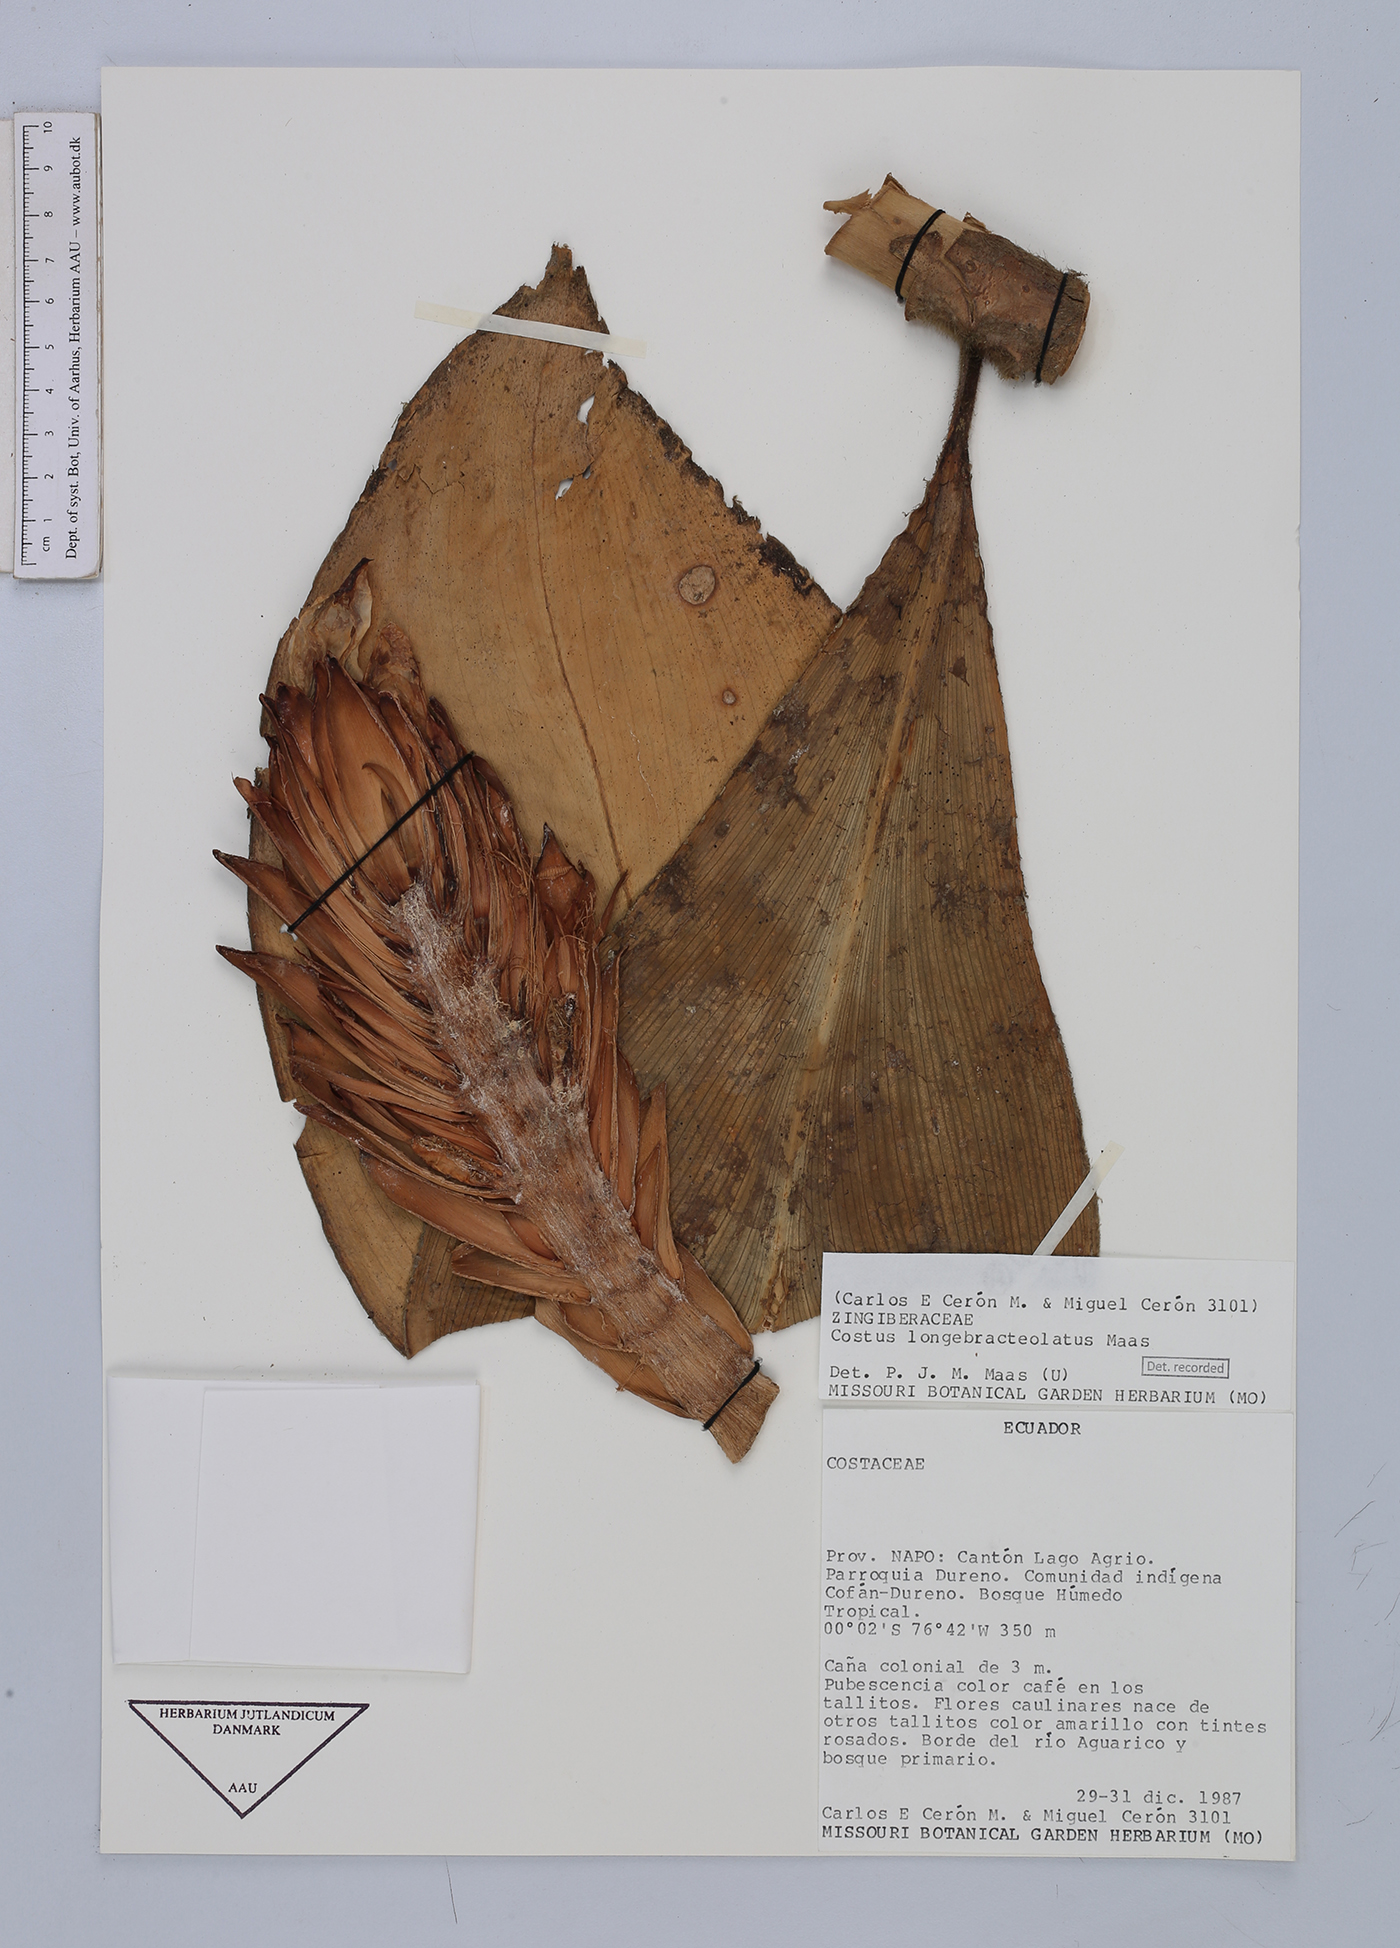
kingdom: Plantae
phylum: Tracheophyta
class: Liliopsida
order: Zingiberales
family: Costaceae
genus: Costus
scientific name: Costus longebracteolatus
